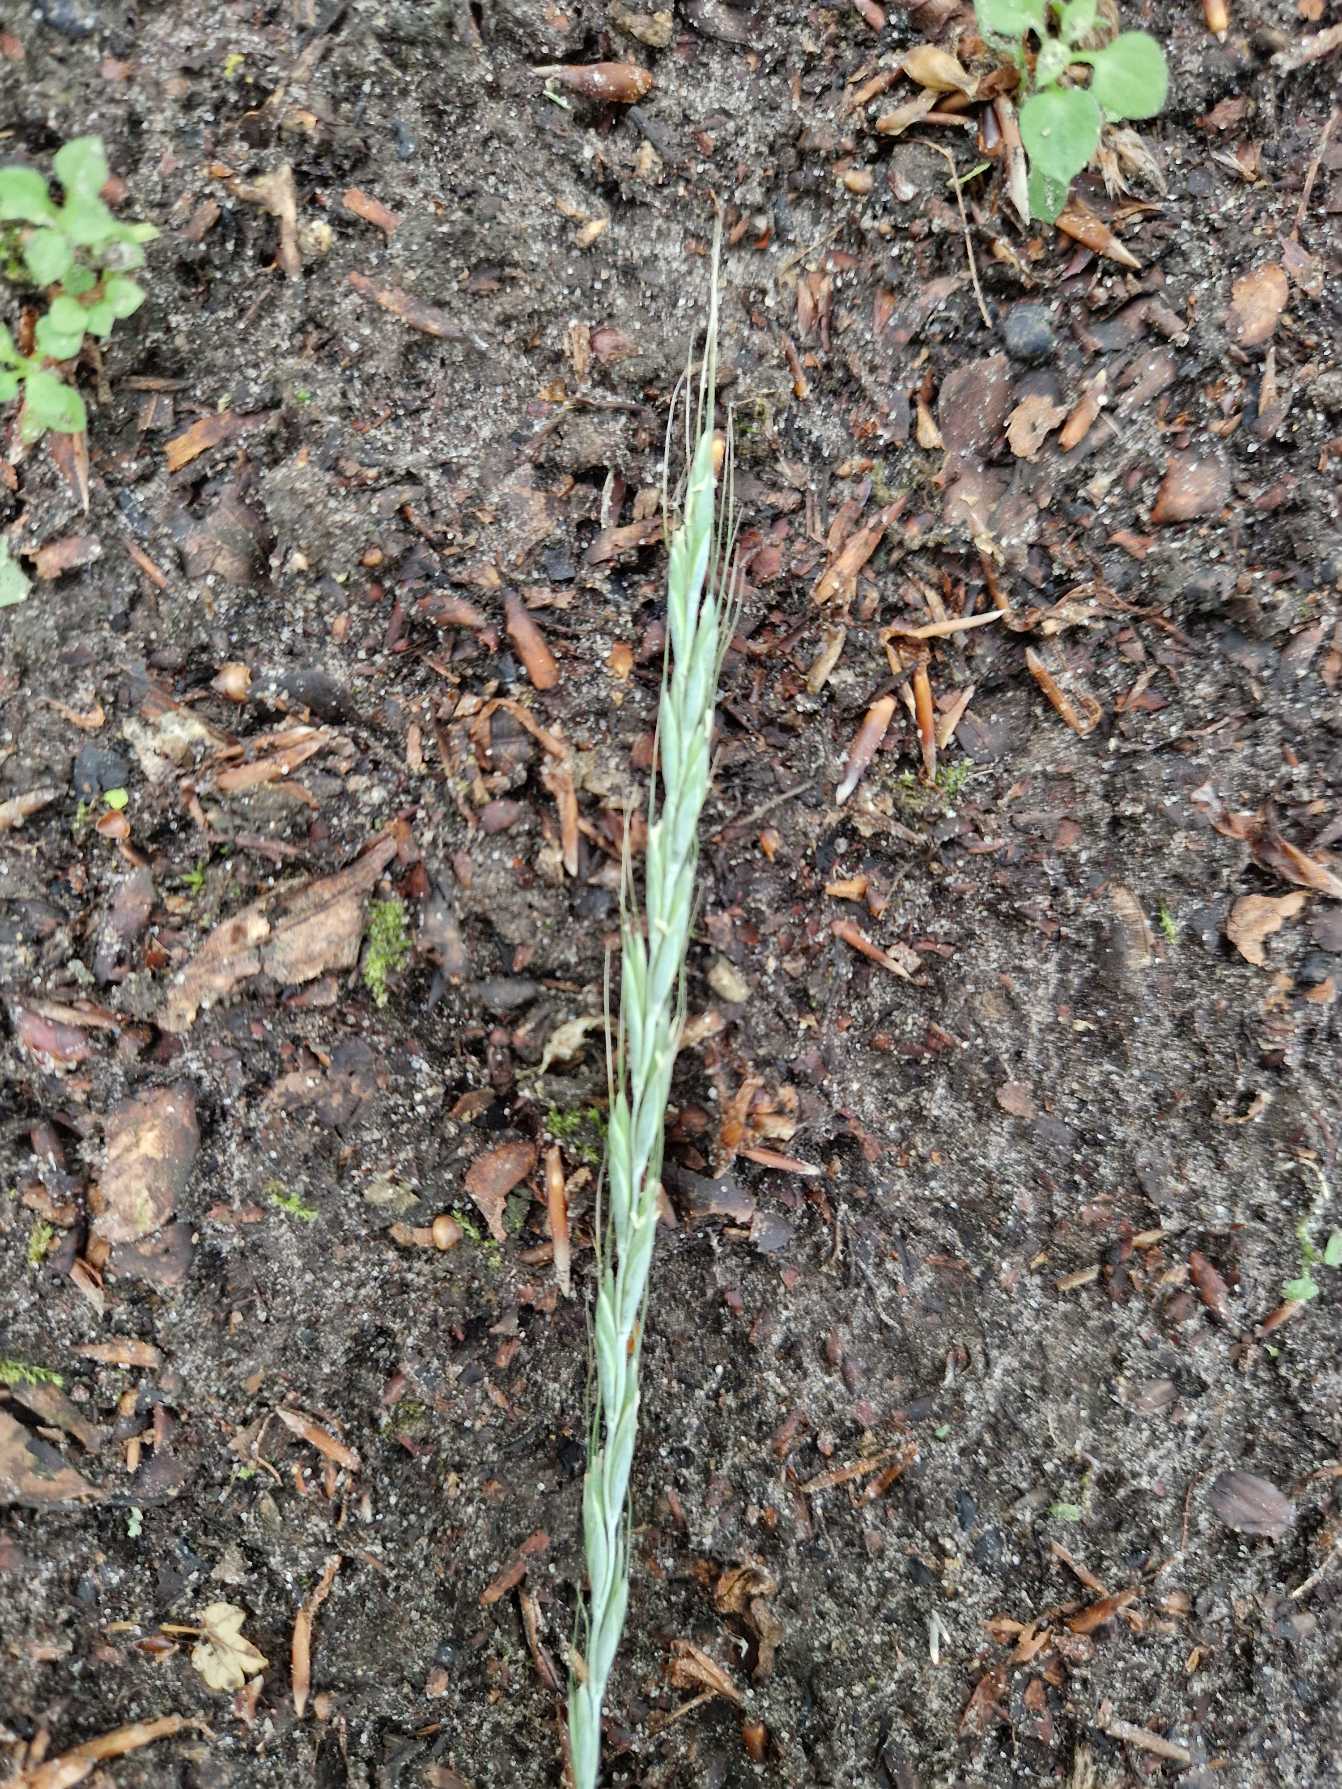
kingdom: Plantae
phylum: Tracheophyta
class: Liliopsida
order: Poales
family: Poaceae
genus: Elymus
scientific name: Elymus caninus
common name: Hundekvik
